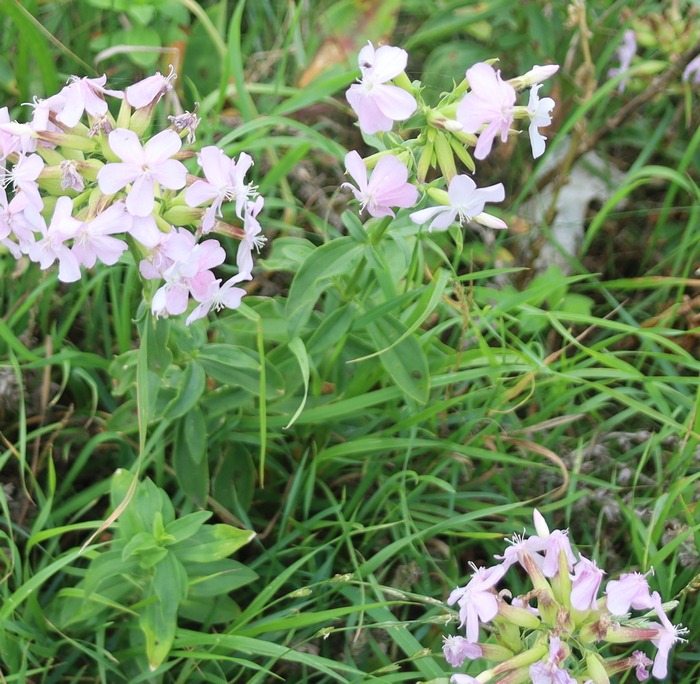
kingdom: Plantae
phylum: Tracheophyta
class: Magnoliopsida
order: Caryophyllales
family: Caryophyllaceae
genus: Saponaria
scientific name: Saponaria officinalis
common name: Sæbeurt
